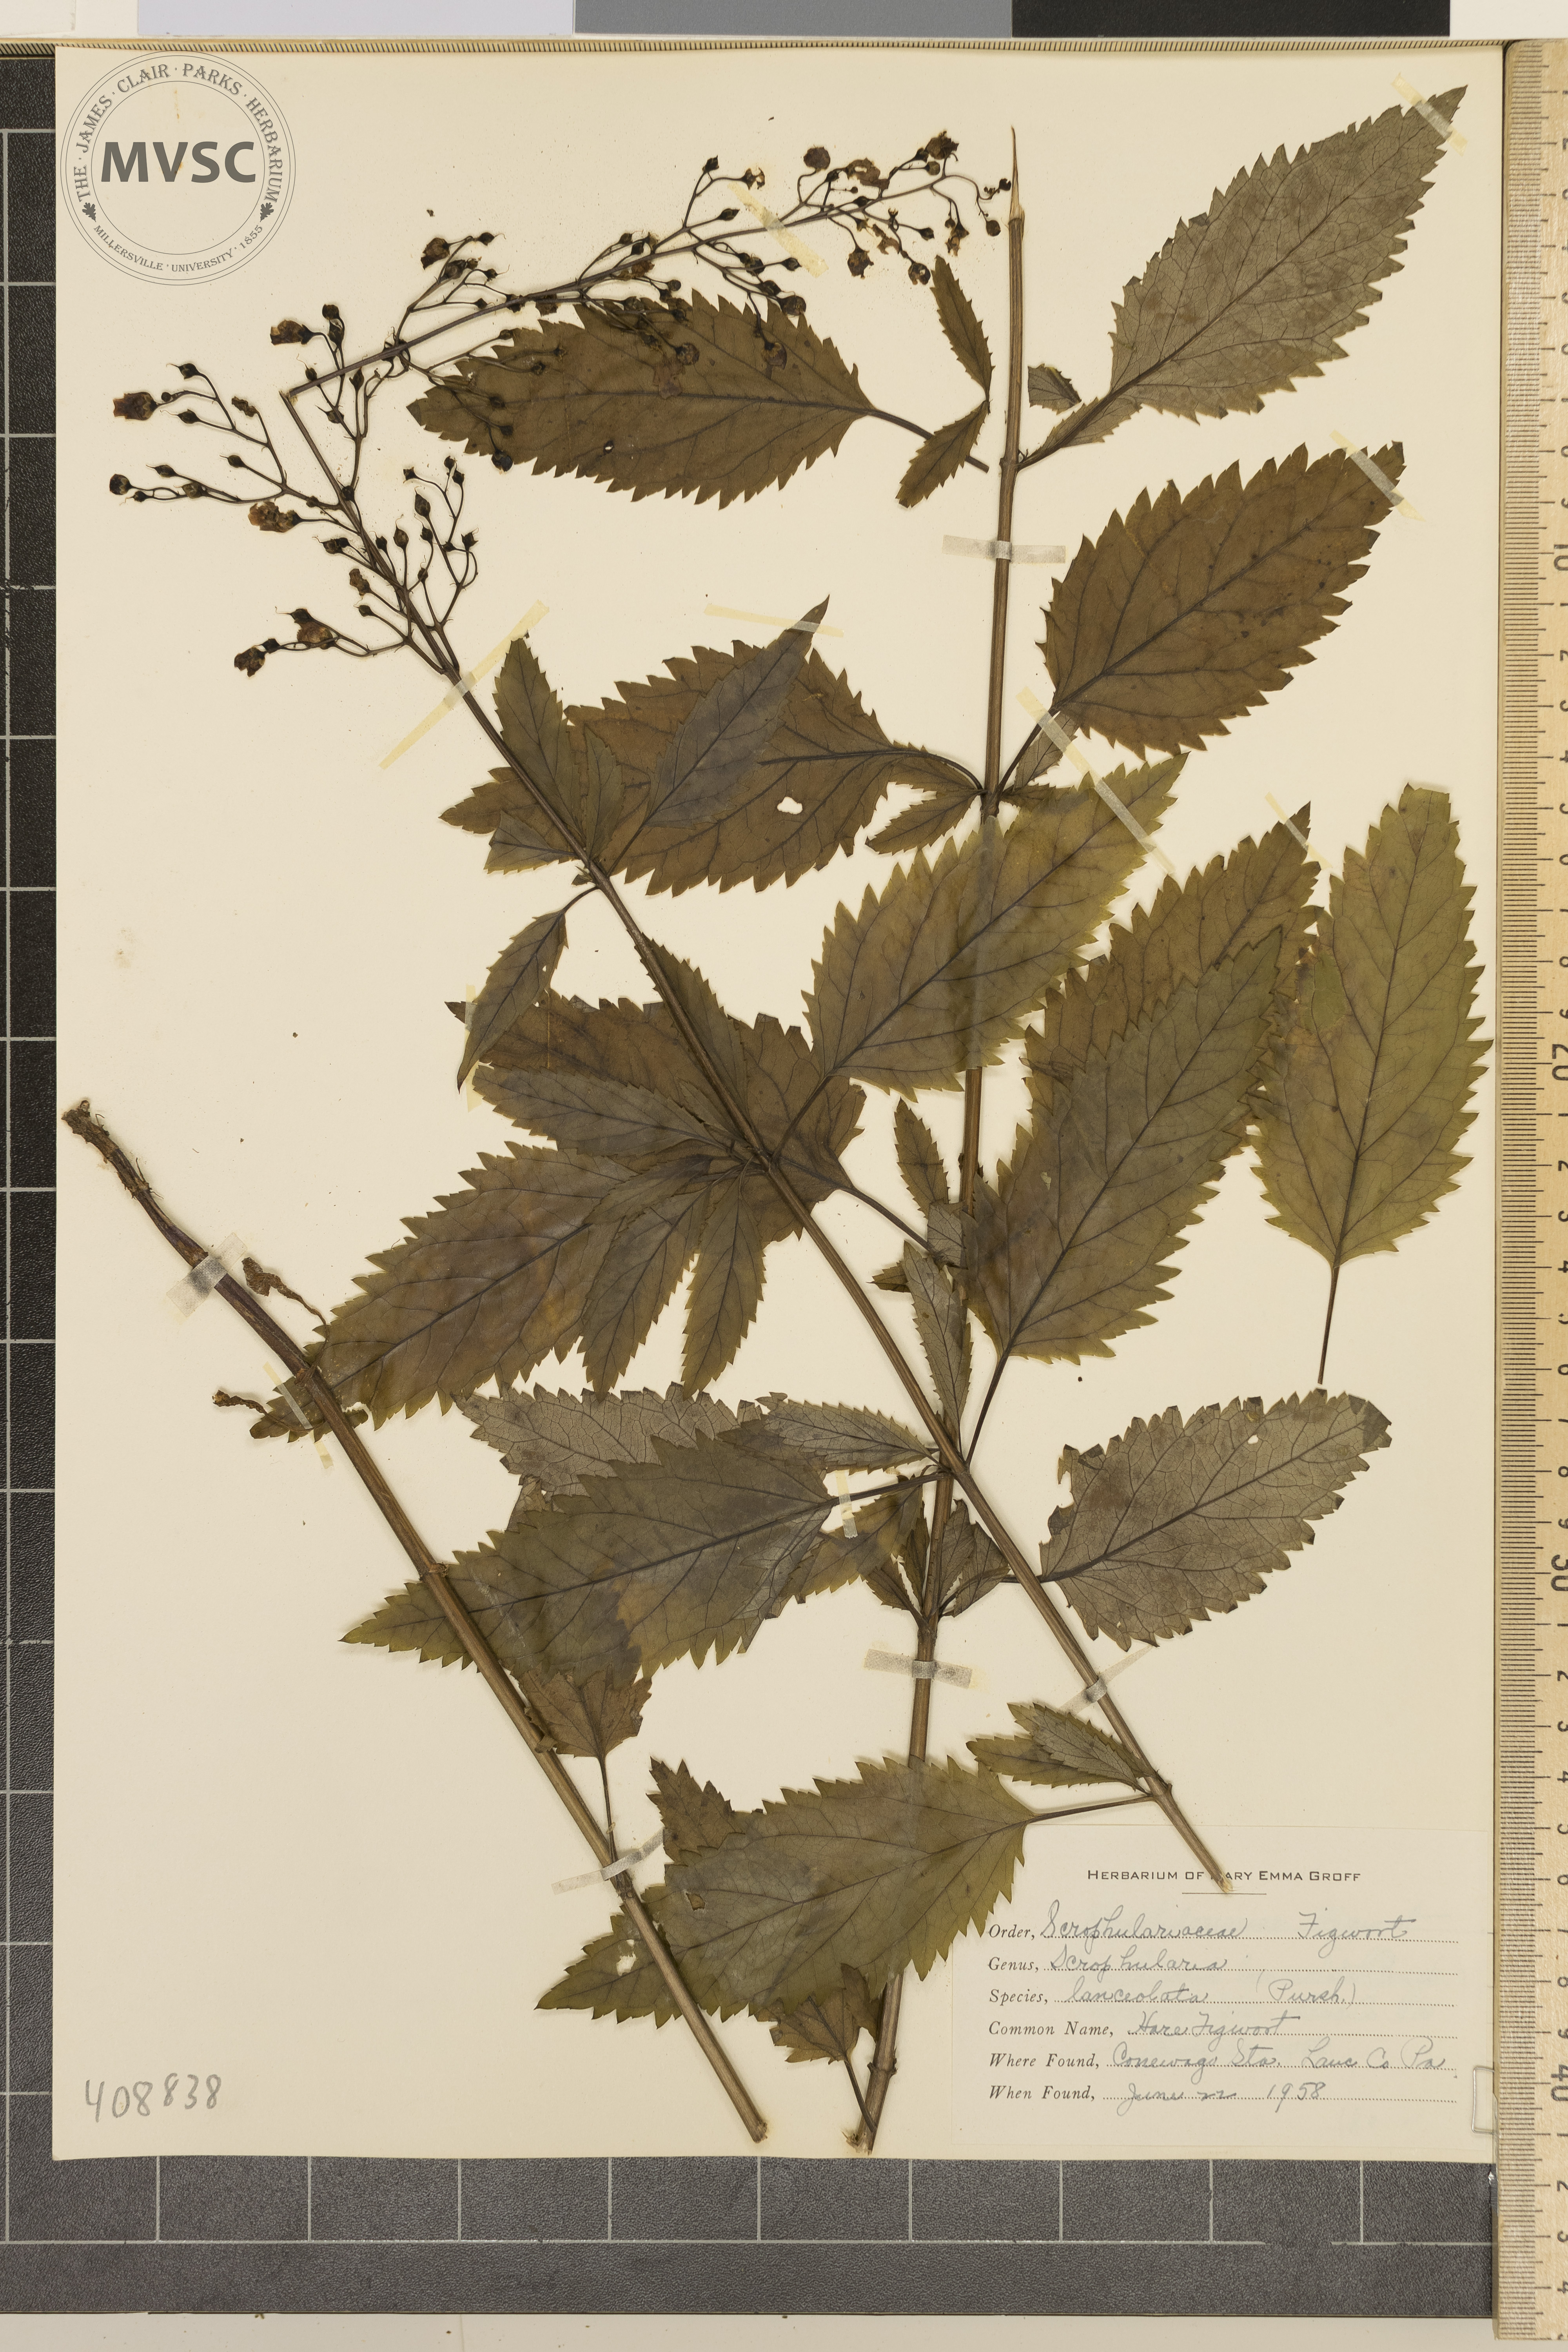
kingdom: Plantae
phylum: Tracheophyta
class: Magnoliopsida
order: Lamiales
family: Scrophulariaceae
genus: Scrophularia
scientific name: Scrophularia lanceolata
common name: Hare Figwort
